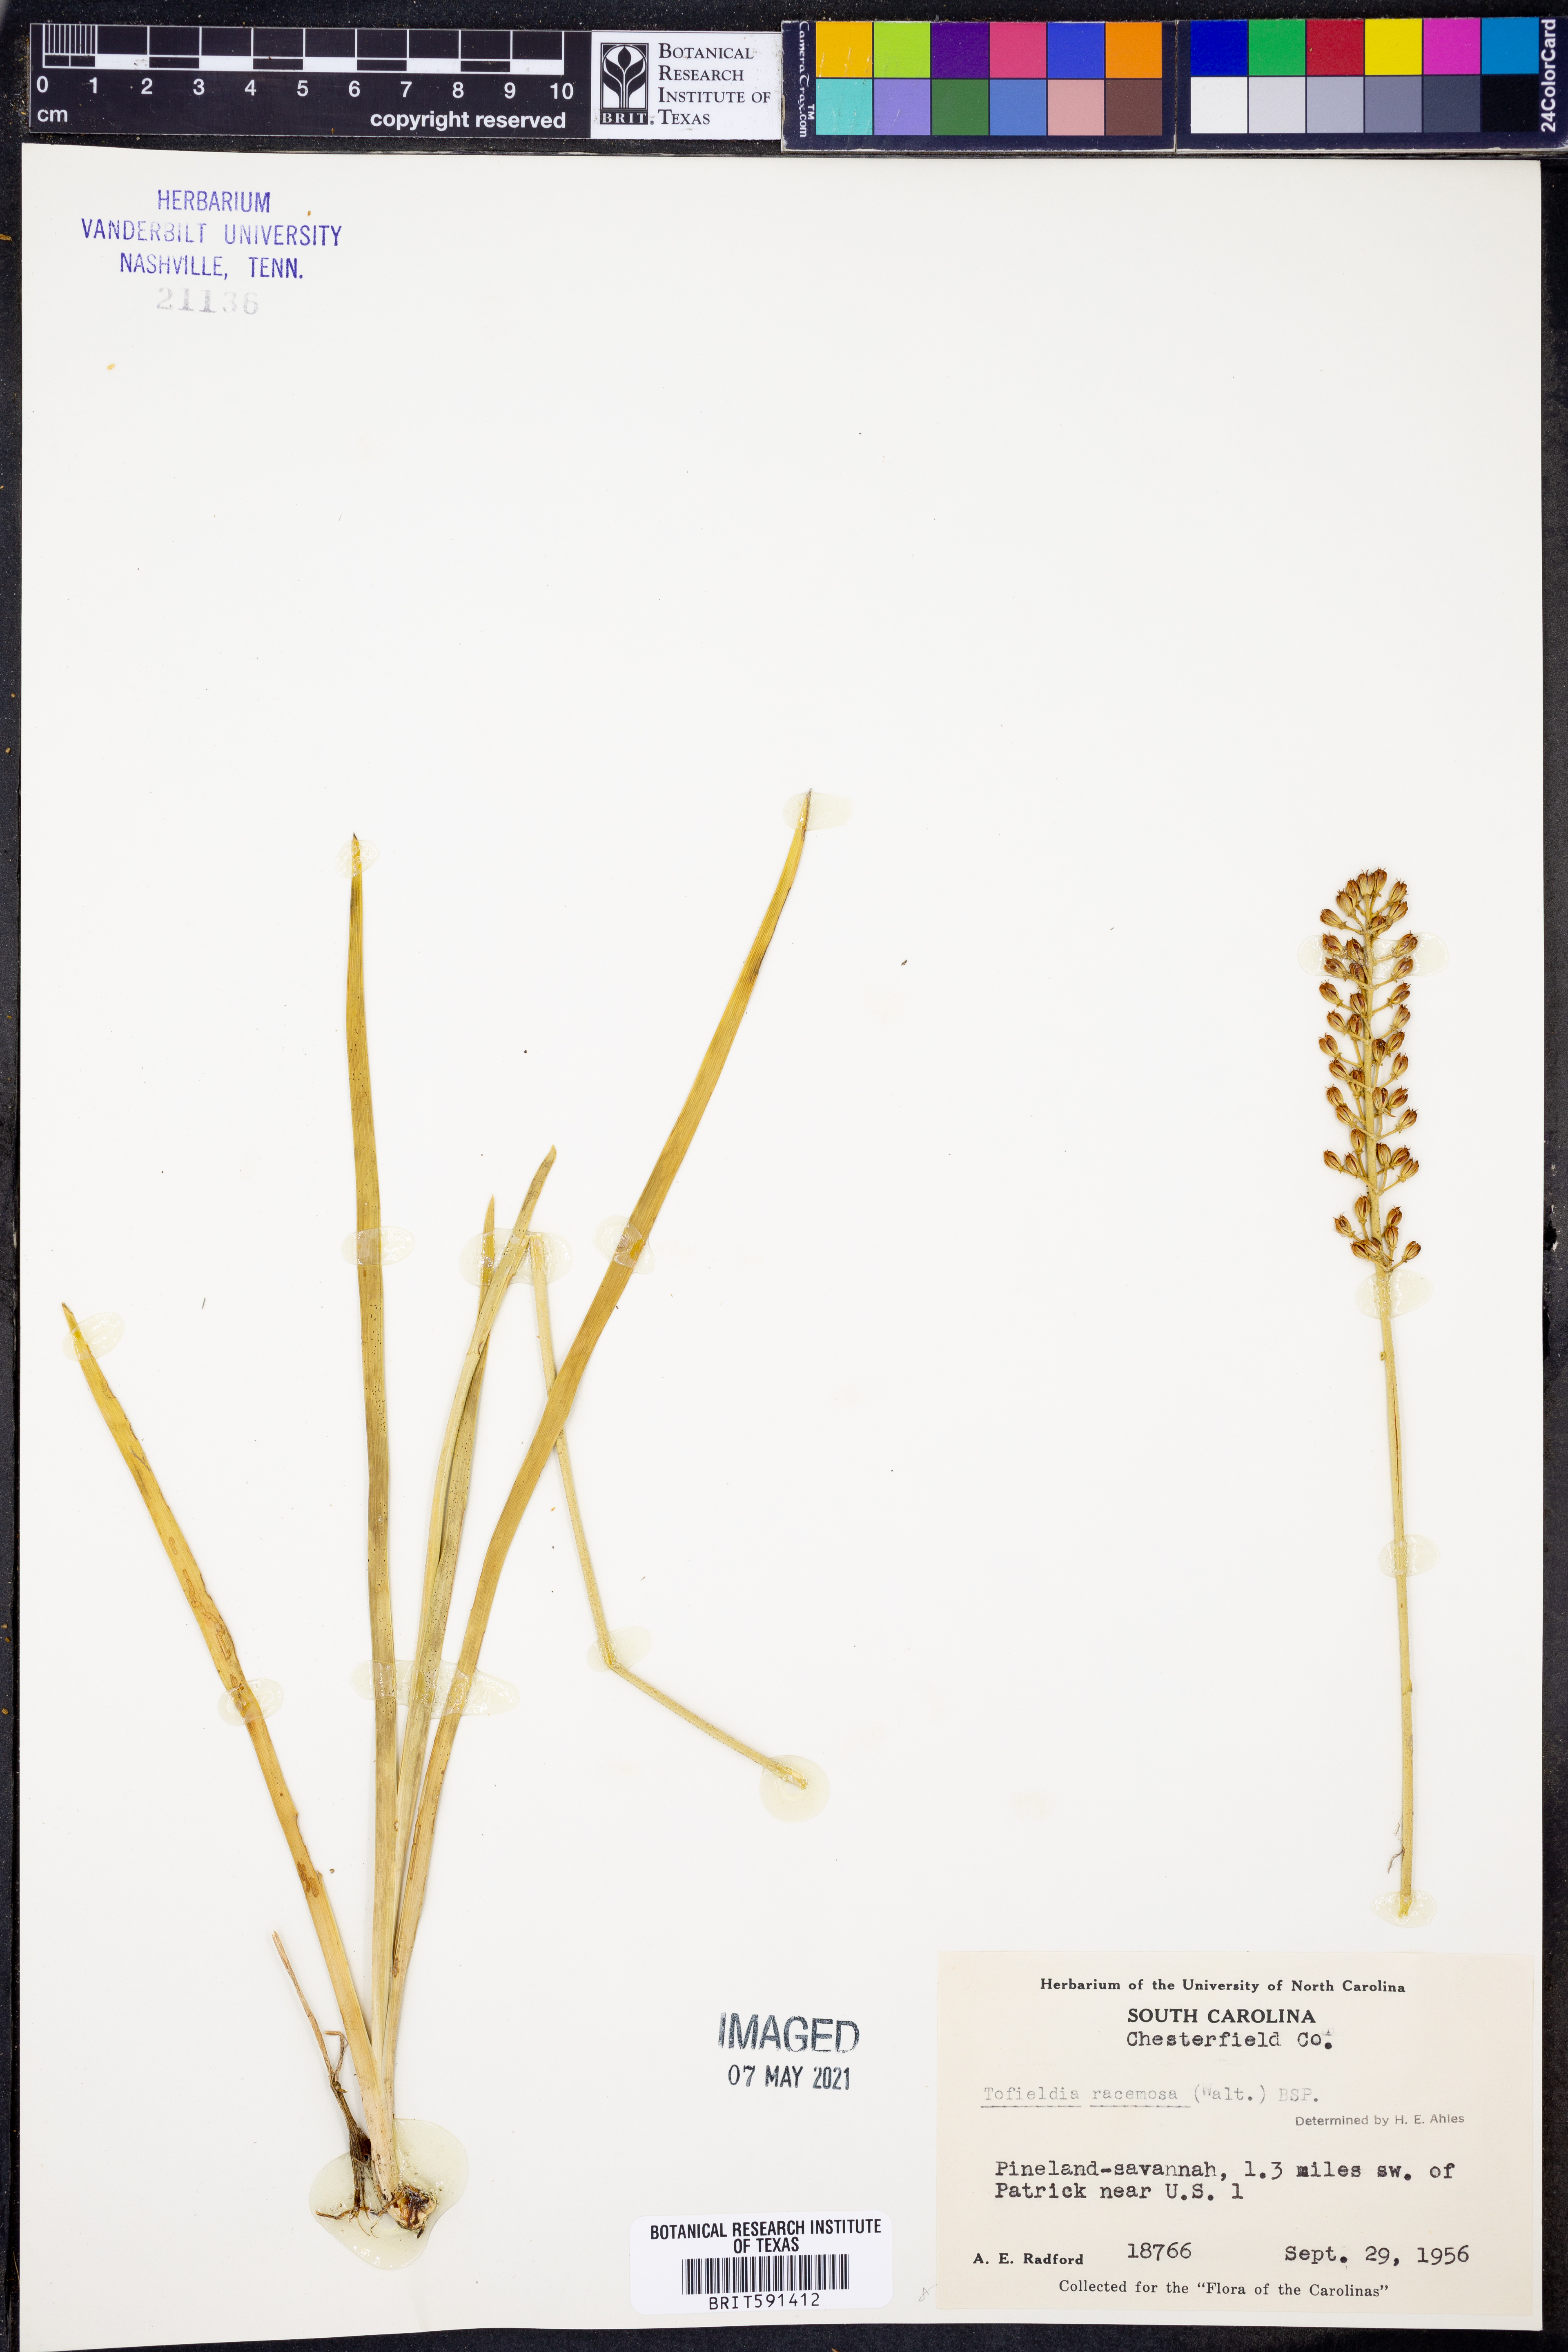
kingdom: Plantae
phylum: Tracheophyta
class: Liliopsida
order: Alismatales
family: Tofieldiaceae
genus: Triantha
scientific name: Triantha racemosa
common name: Coastal false asphodel
